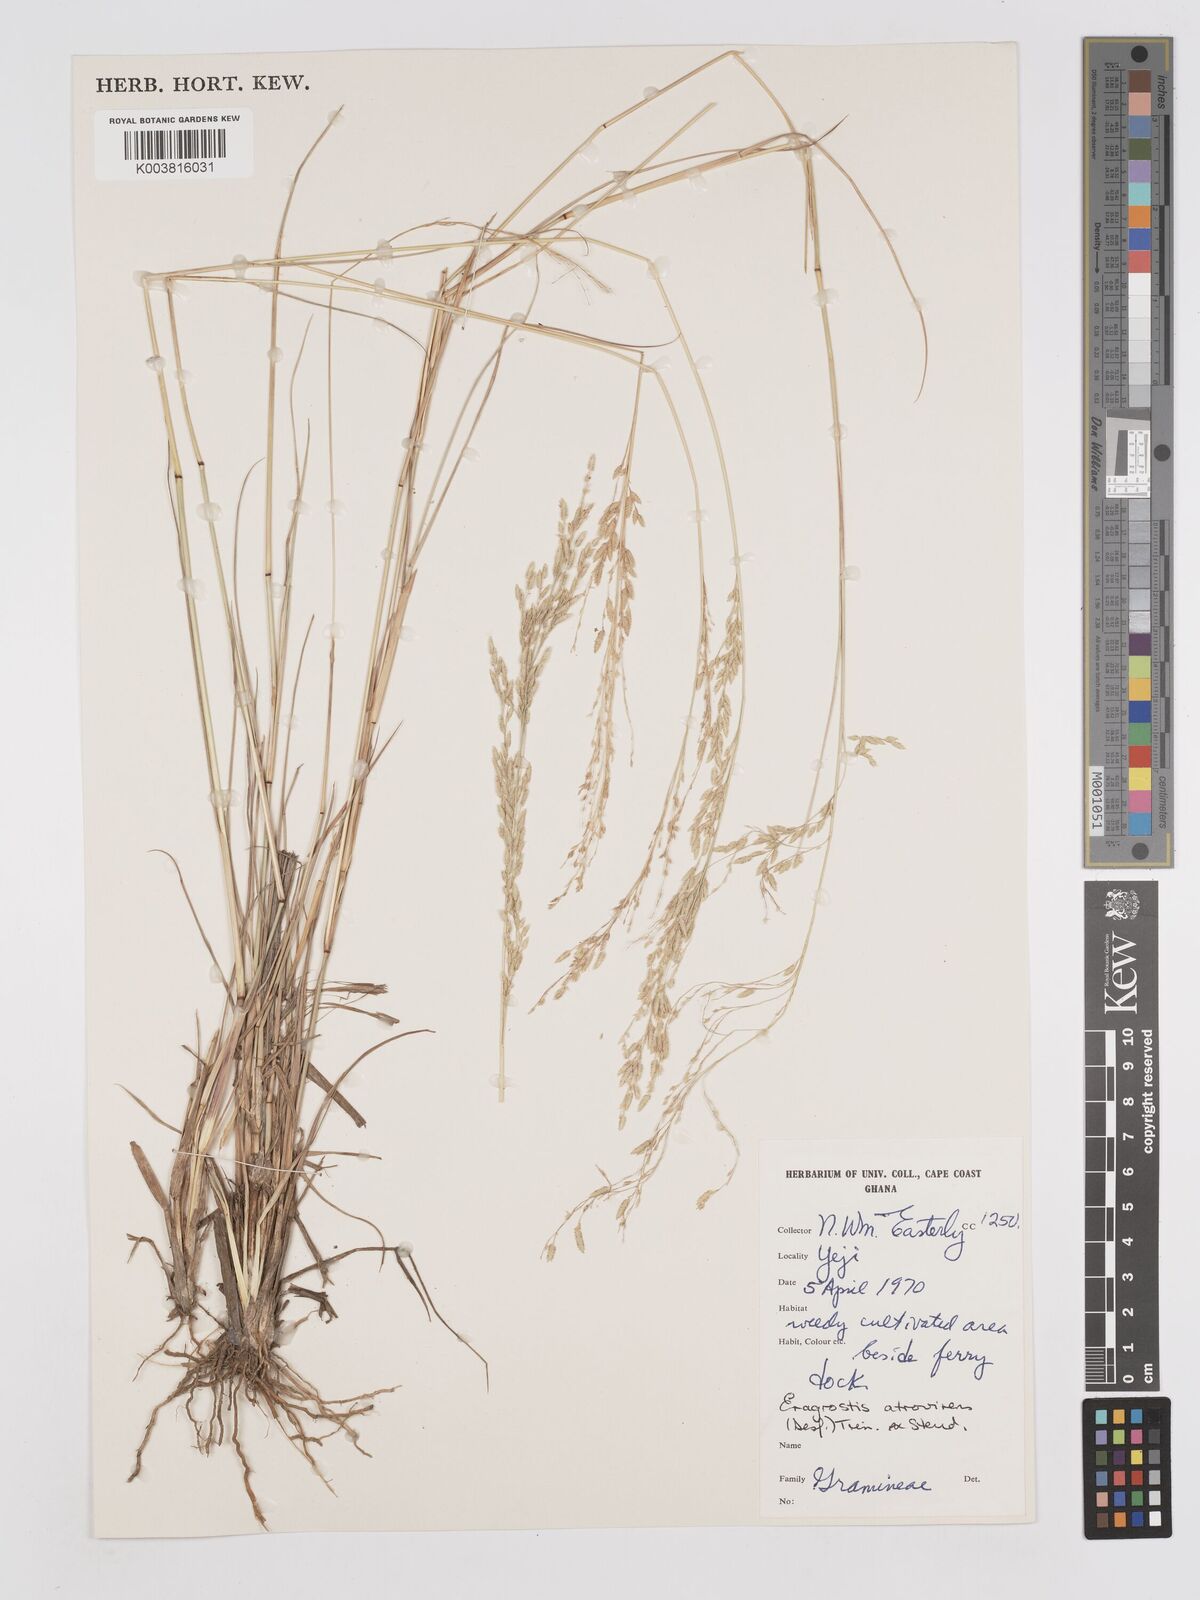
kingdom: Plantae
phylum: Tracheophyta
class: Liliopsida
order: Poales
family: Poaceae
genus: Eragrostis
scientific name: Eragrostis atrovirens
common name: Thalia lovegrass
